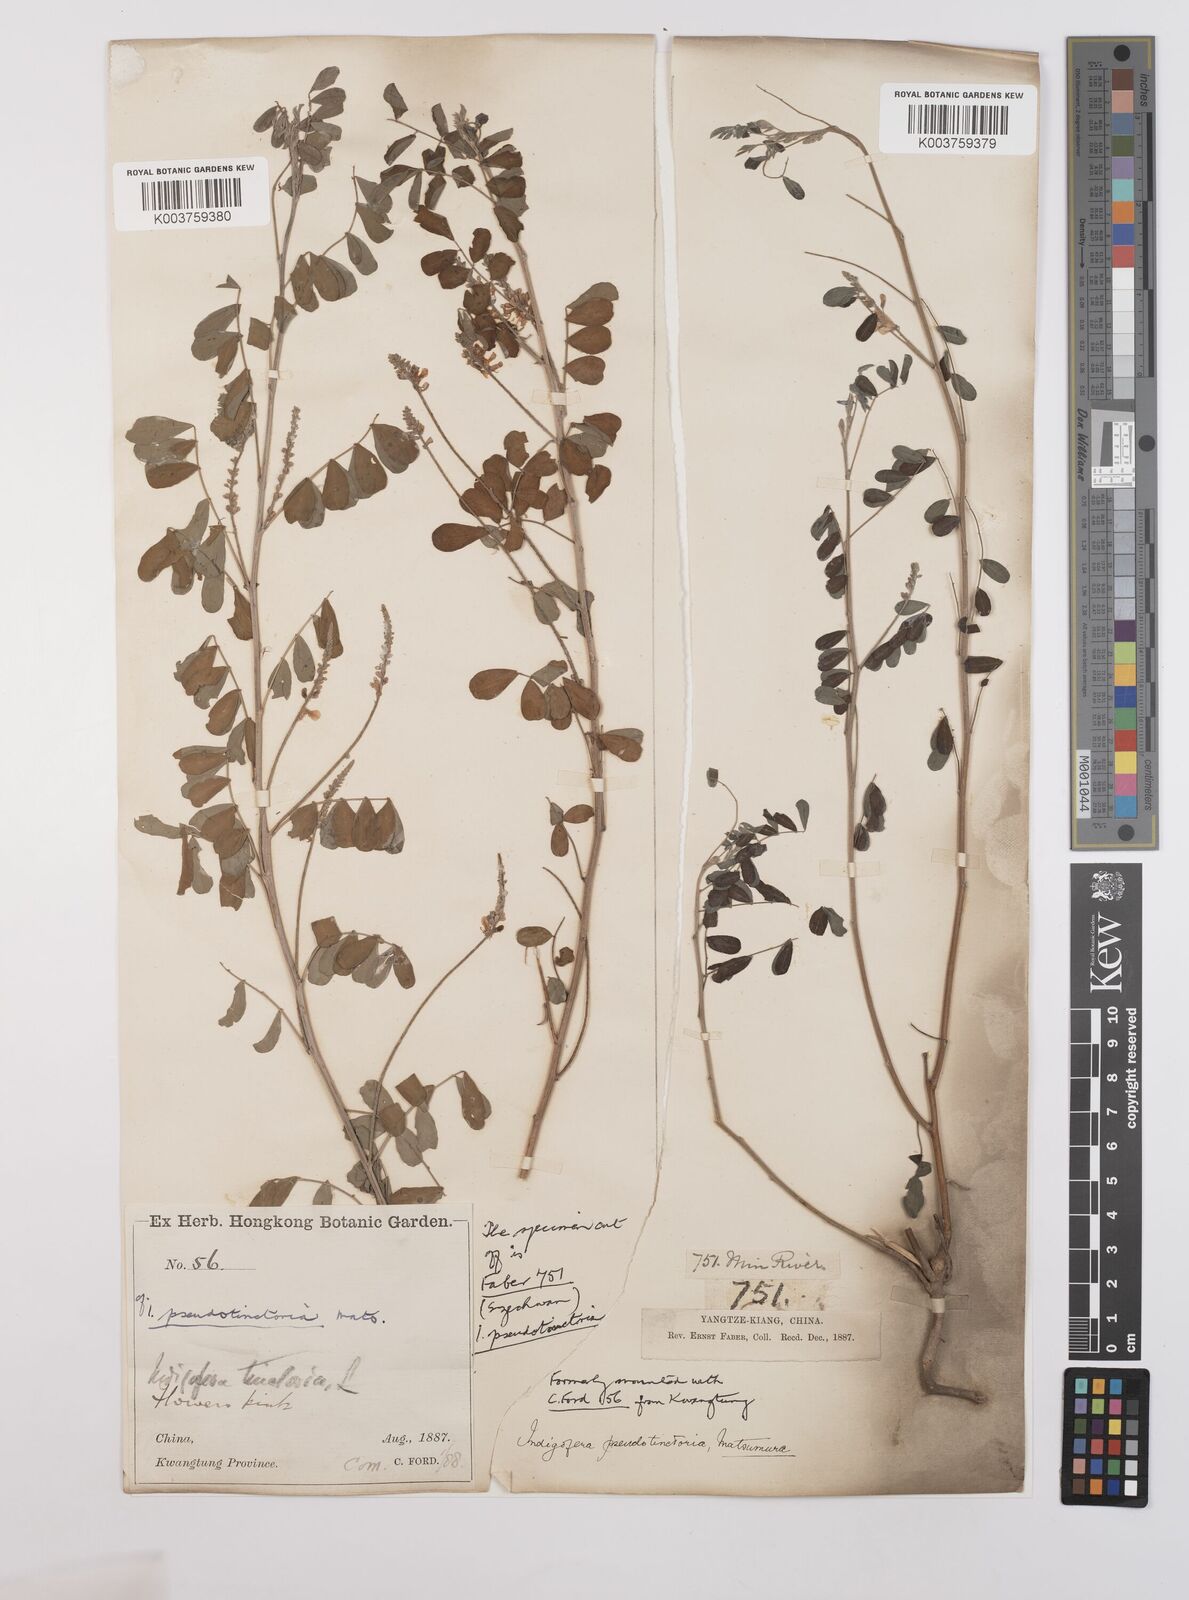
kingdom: Plantae
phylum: Tracheophyta
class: Magnoliopsida
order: Fabales
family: Fabaceae
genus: Indigofera
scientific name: Indigofera bungeana
